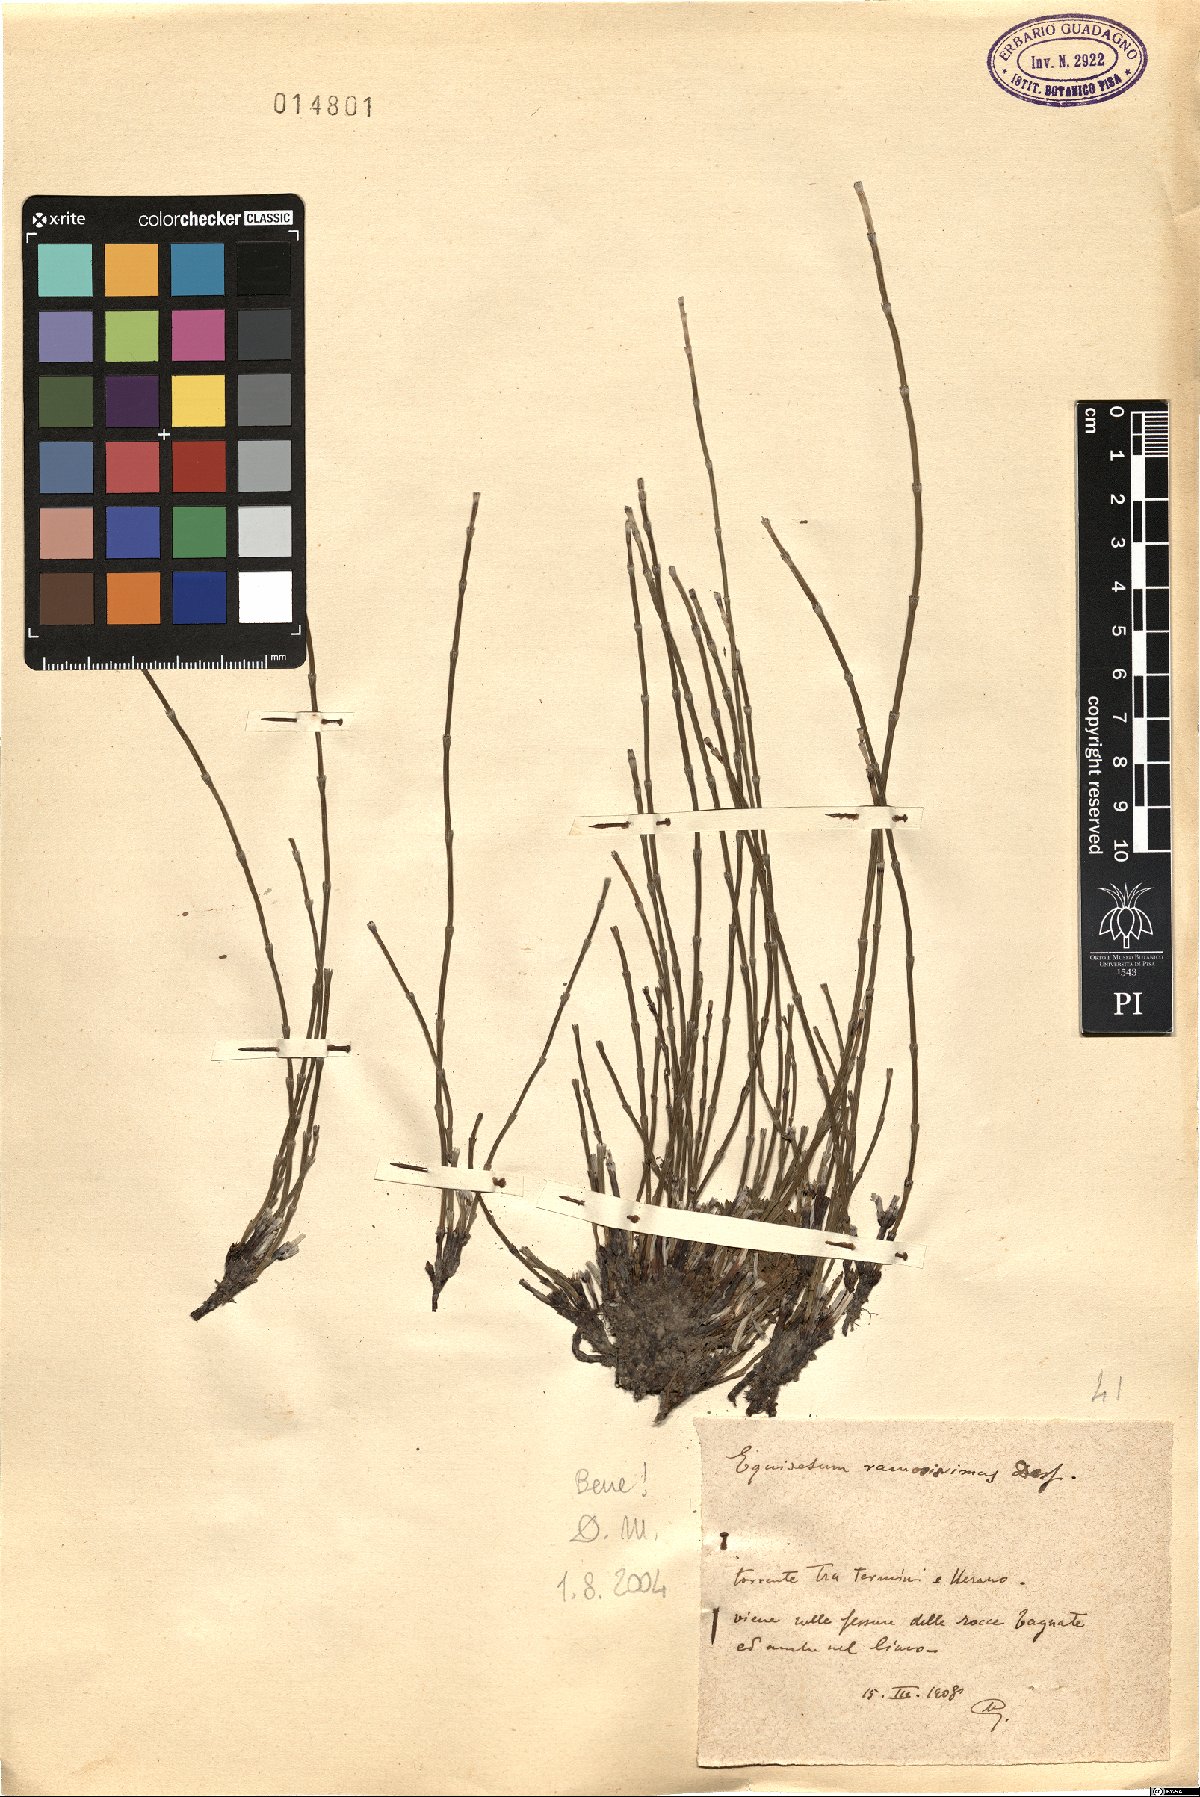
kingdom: Plantae
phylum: Tracheophyta
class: Polypodiopsida
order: Equisetales
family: Equisetaceae
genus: Equisetum
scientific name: Equisetum ramosissimum
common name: Branched horsetail
